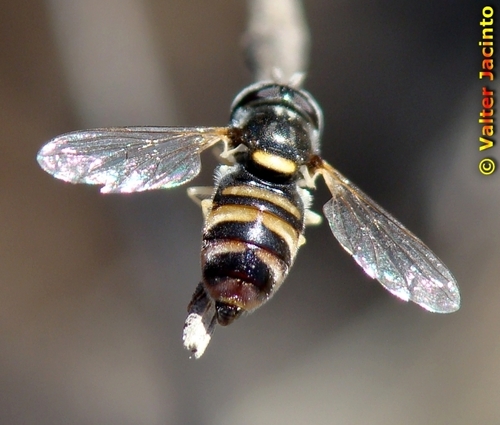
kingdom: Animalia
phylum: Arthropoda
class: Insecta
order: Diptera
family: Syrphidae
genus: Paragus
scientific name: Paragus quadrifasciatus
